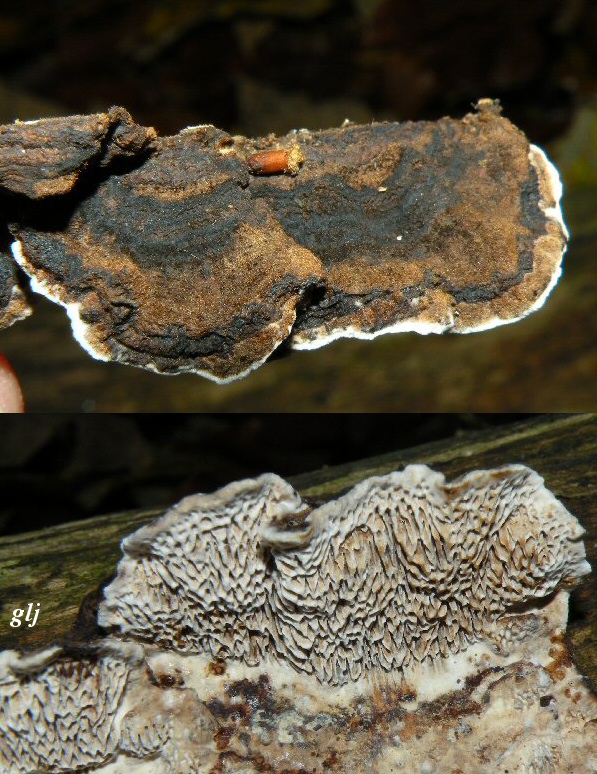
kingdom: Fungi
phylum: Basidiomycota
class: Agaricomycetes
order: Polyporales
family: Polyporaceae
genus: Podofomes
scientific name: Podofomes mollis
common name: blød begporesvamp
